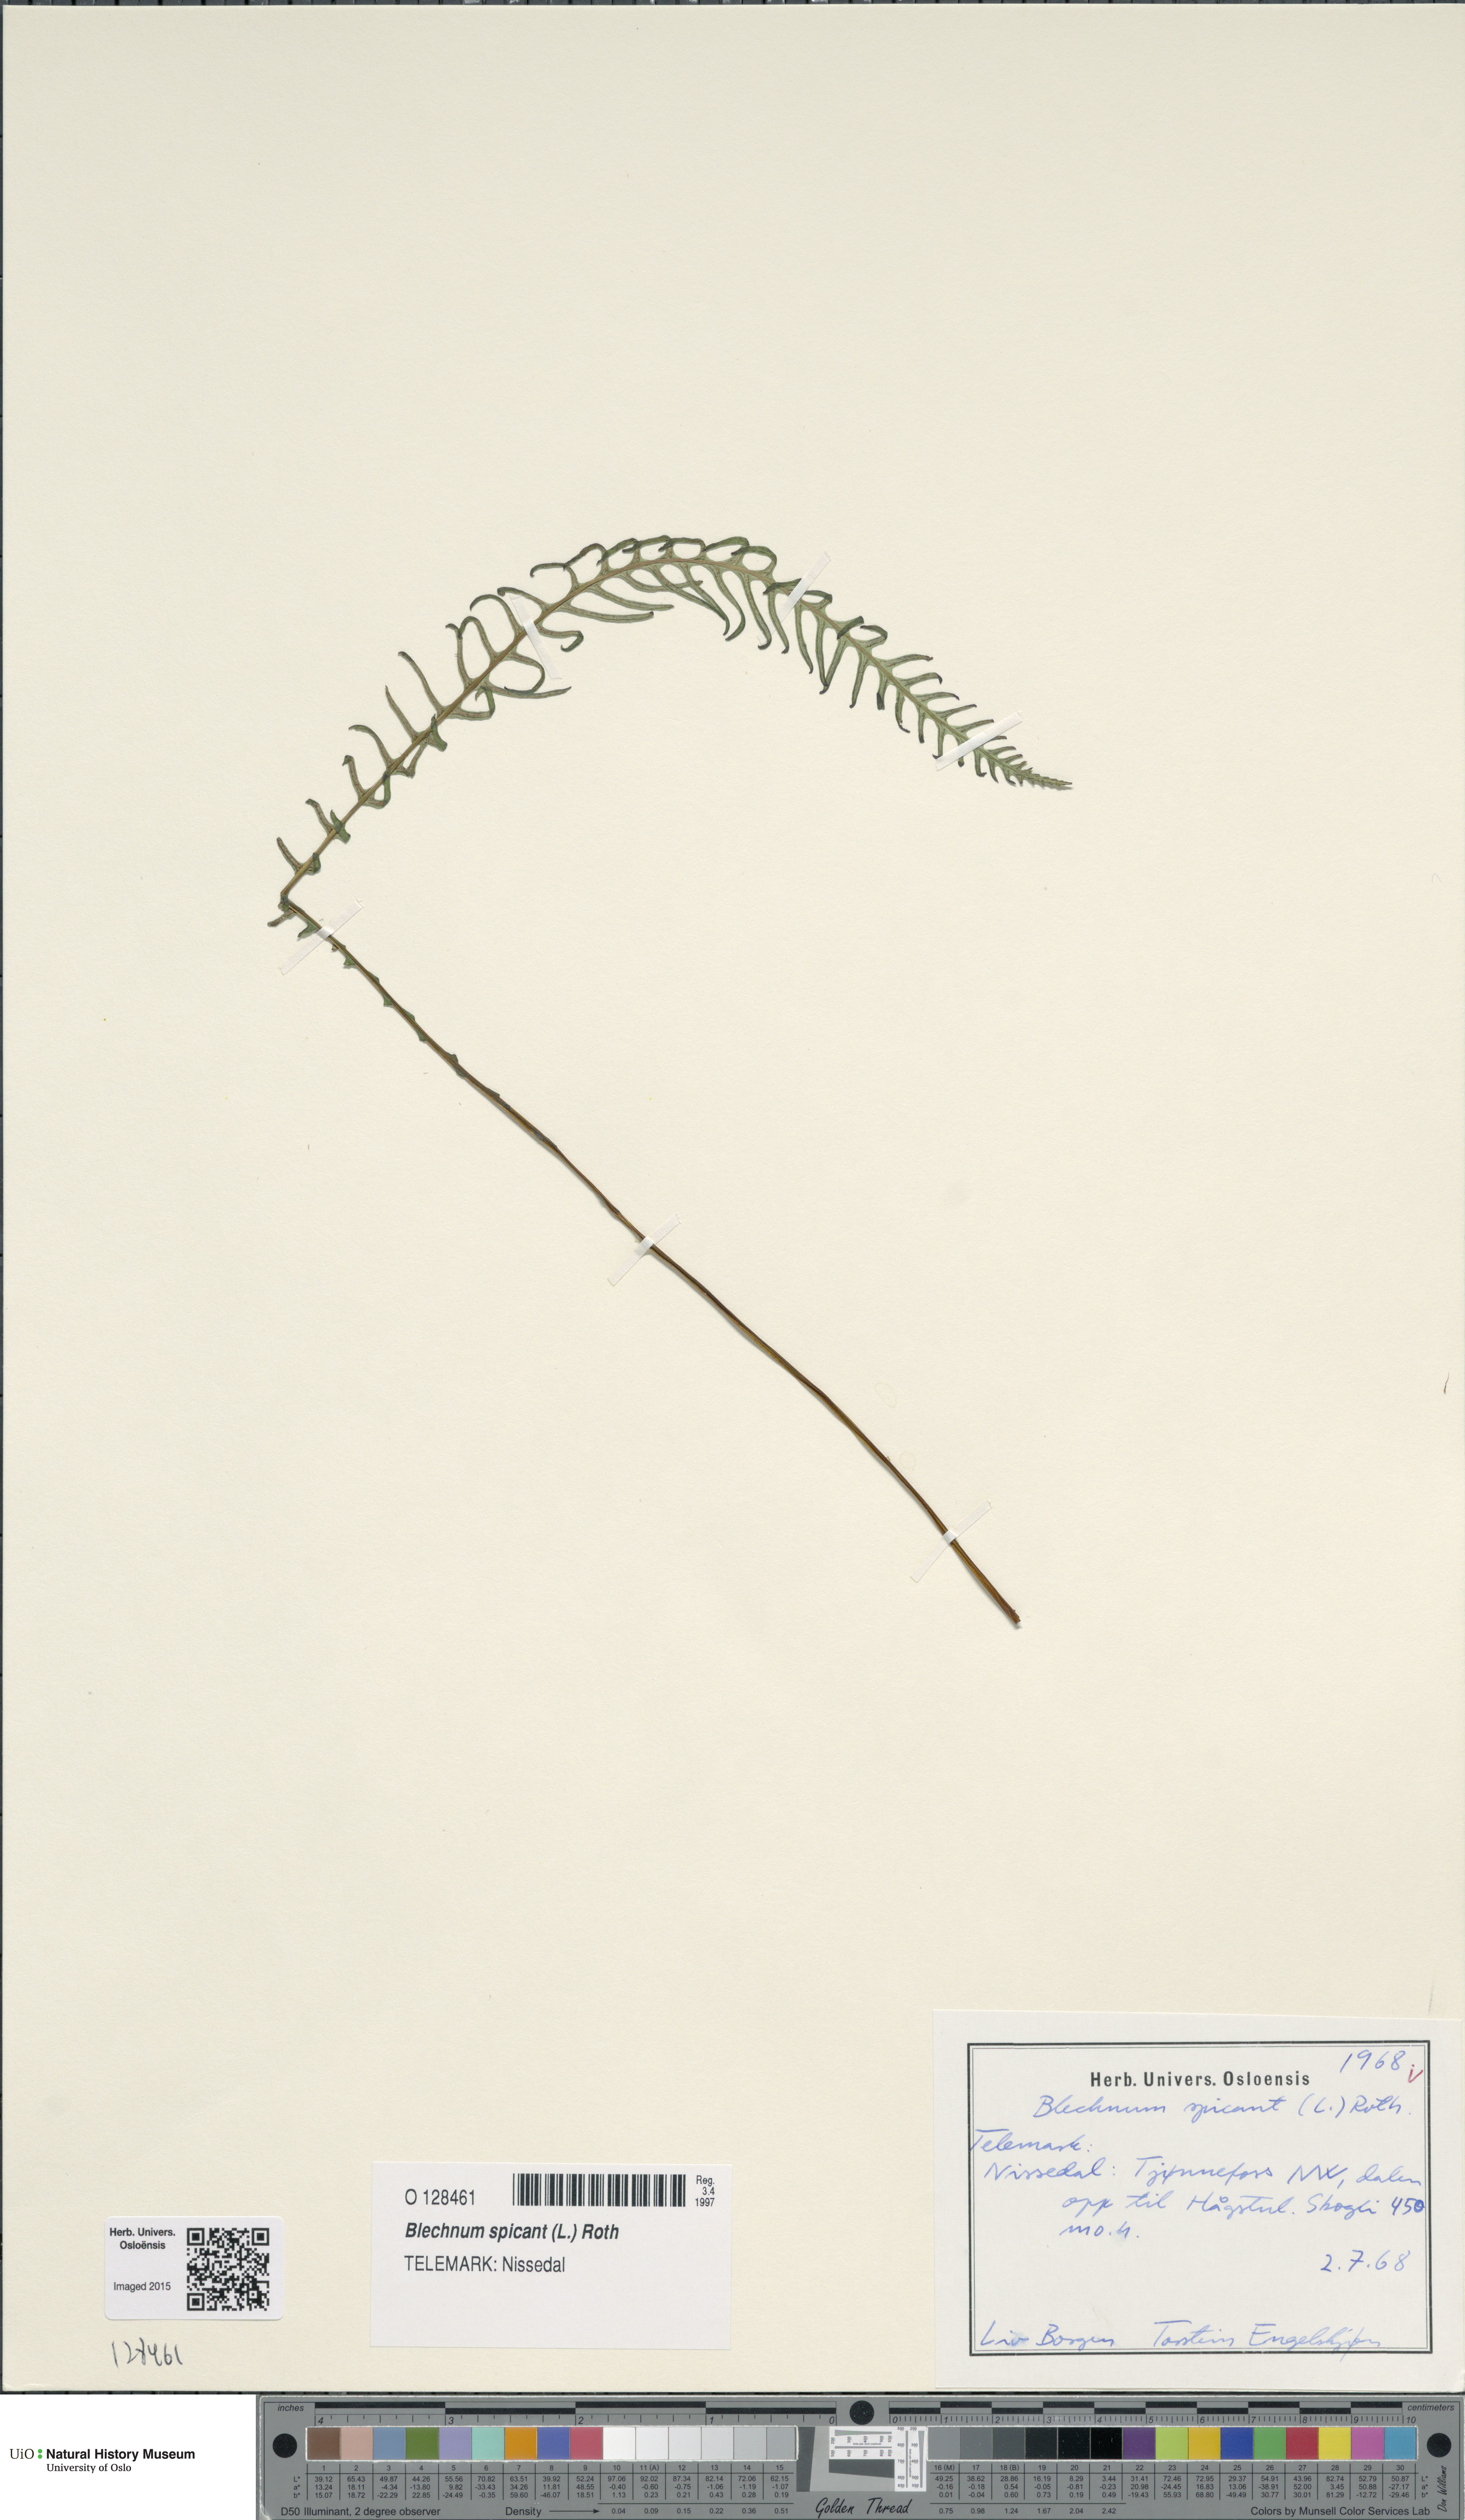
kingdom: Plantae
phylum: Tracheophyta
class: Polypodiopsida
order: Polypodiales
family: Blechnaceae
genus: Struthiopteris
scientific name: Struthiopteris spicant
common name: Deer fern
